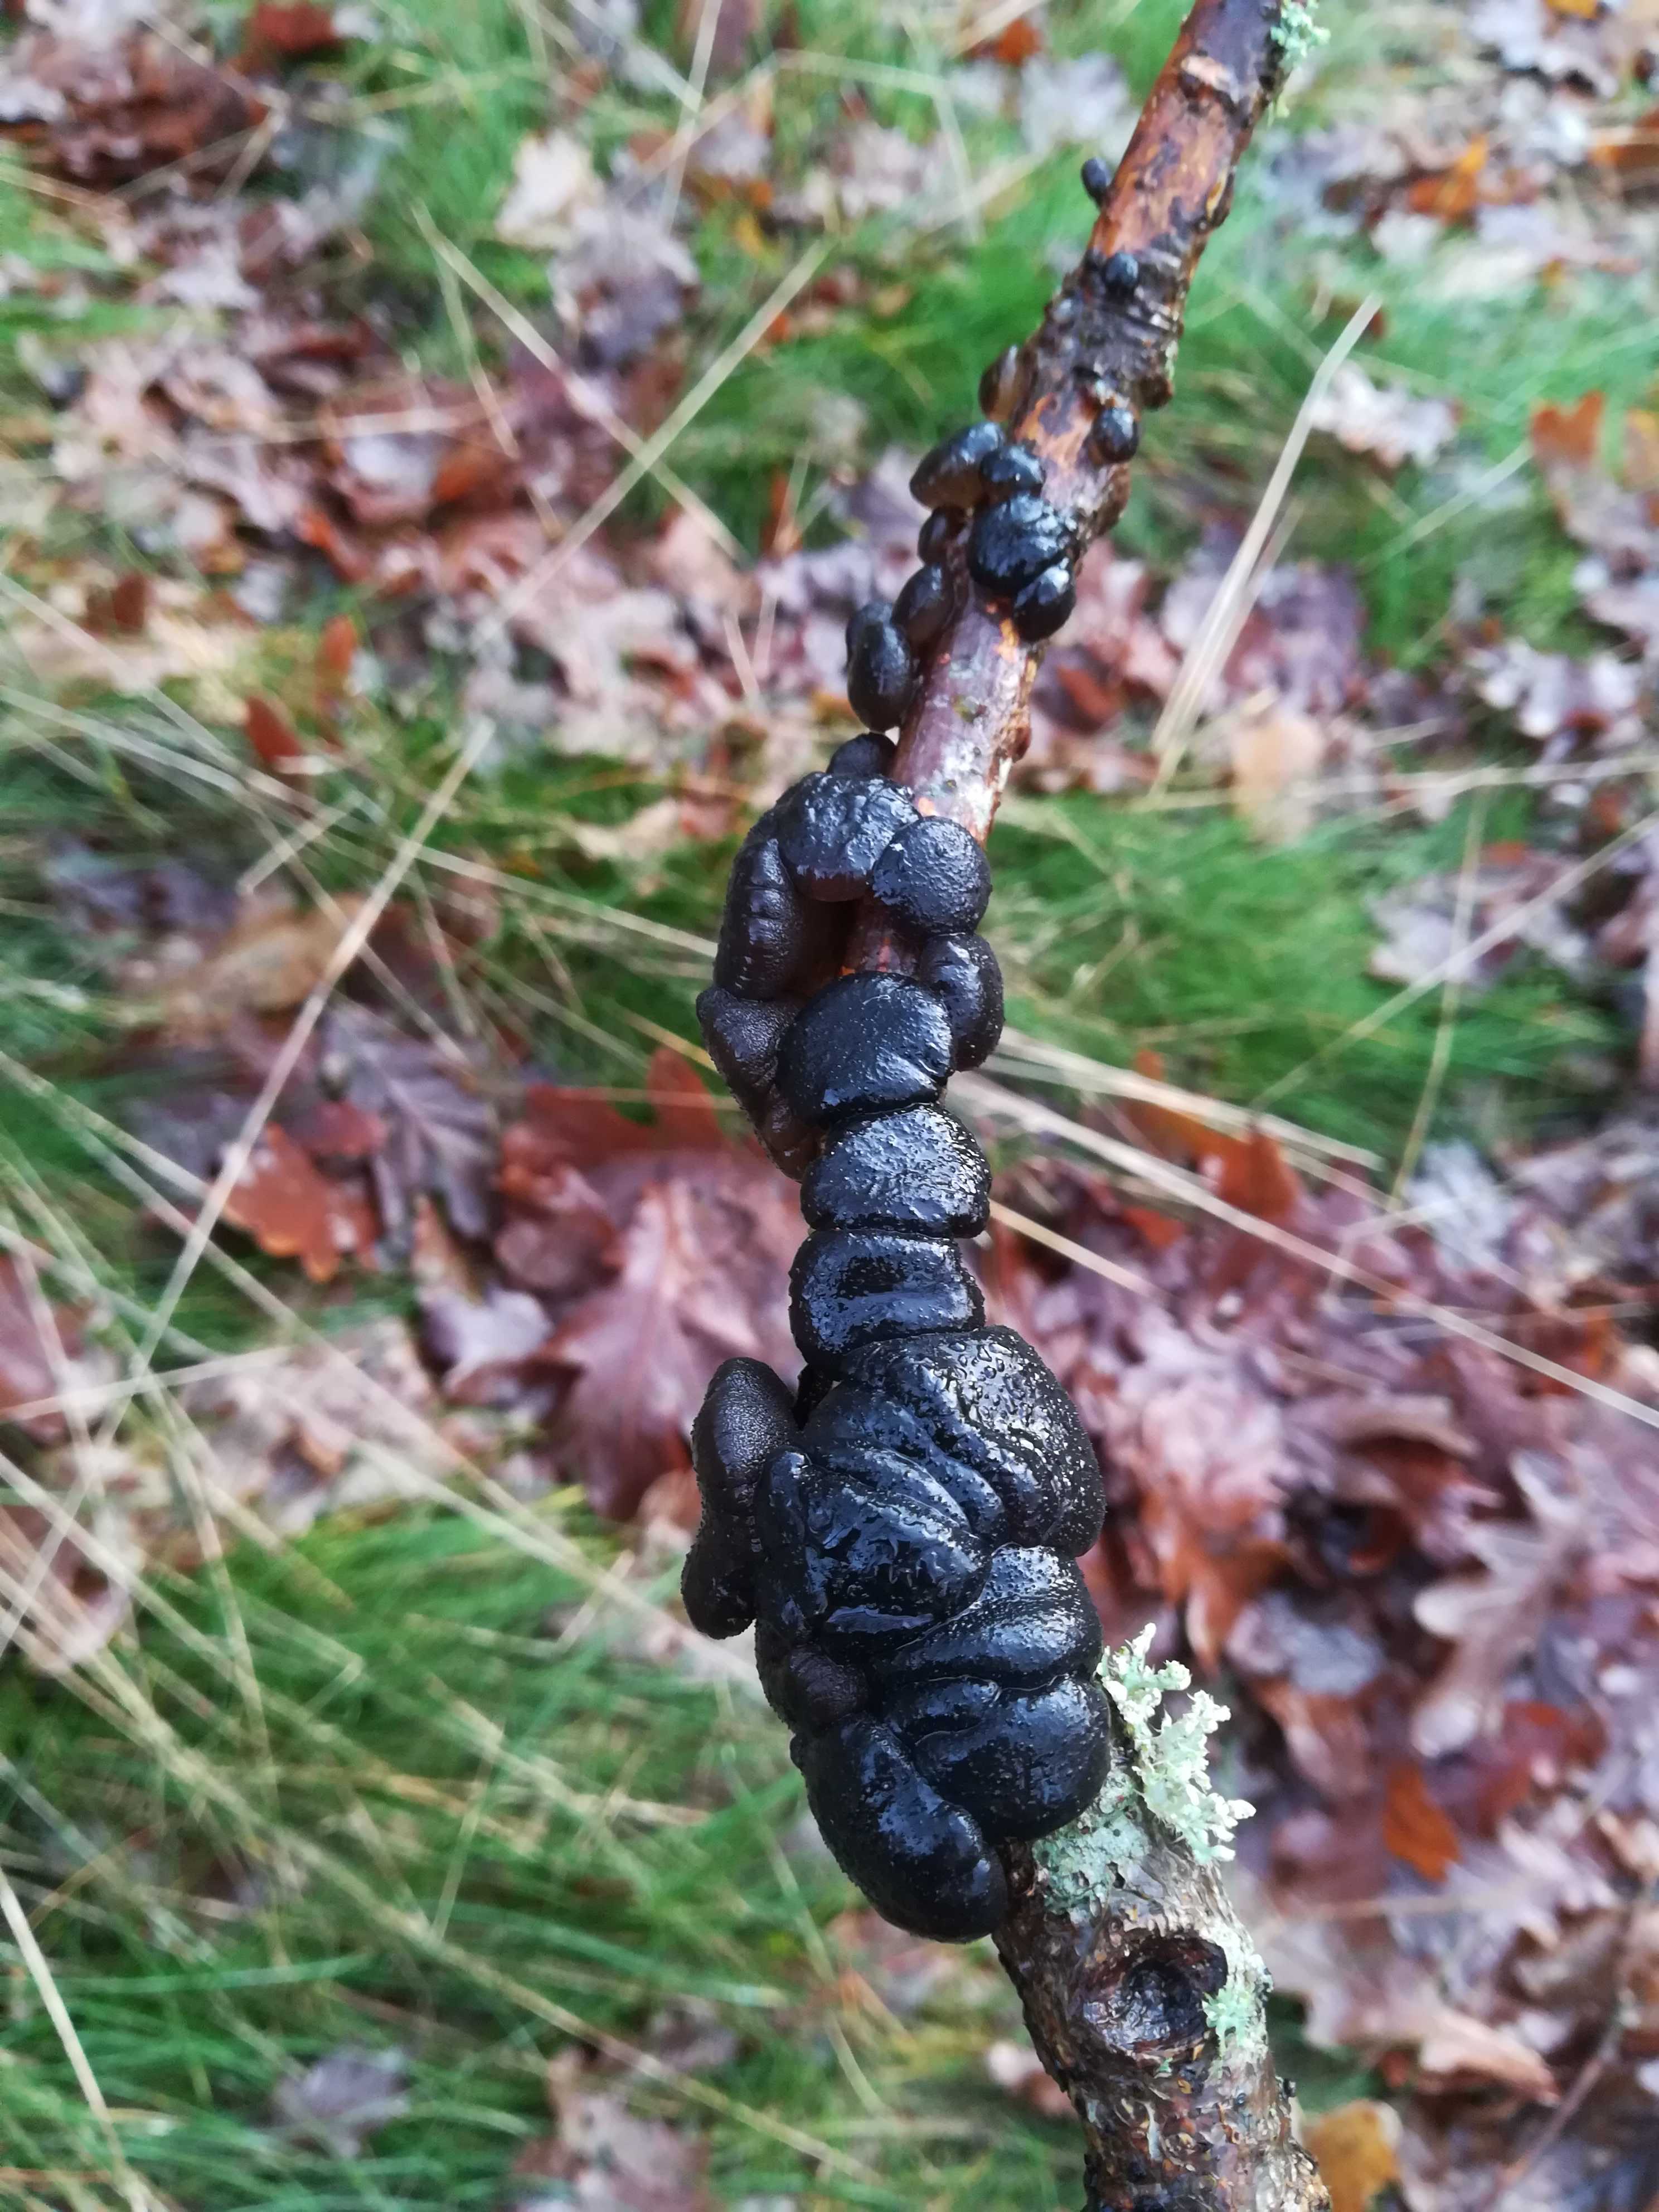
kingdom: Fungi
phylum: Basidiomycota
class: Agaricomycetes
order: Auriculariales
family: Auriculariaceae
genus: Exidia
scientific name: Exidia glandulosa
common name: ege-bævretop
